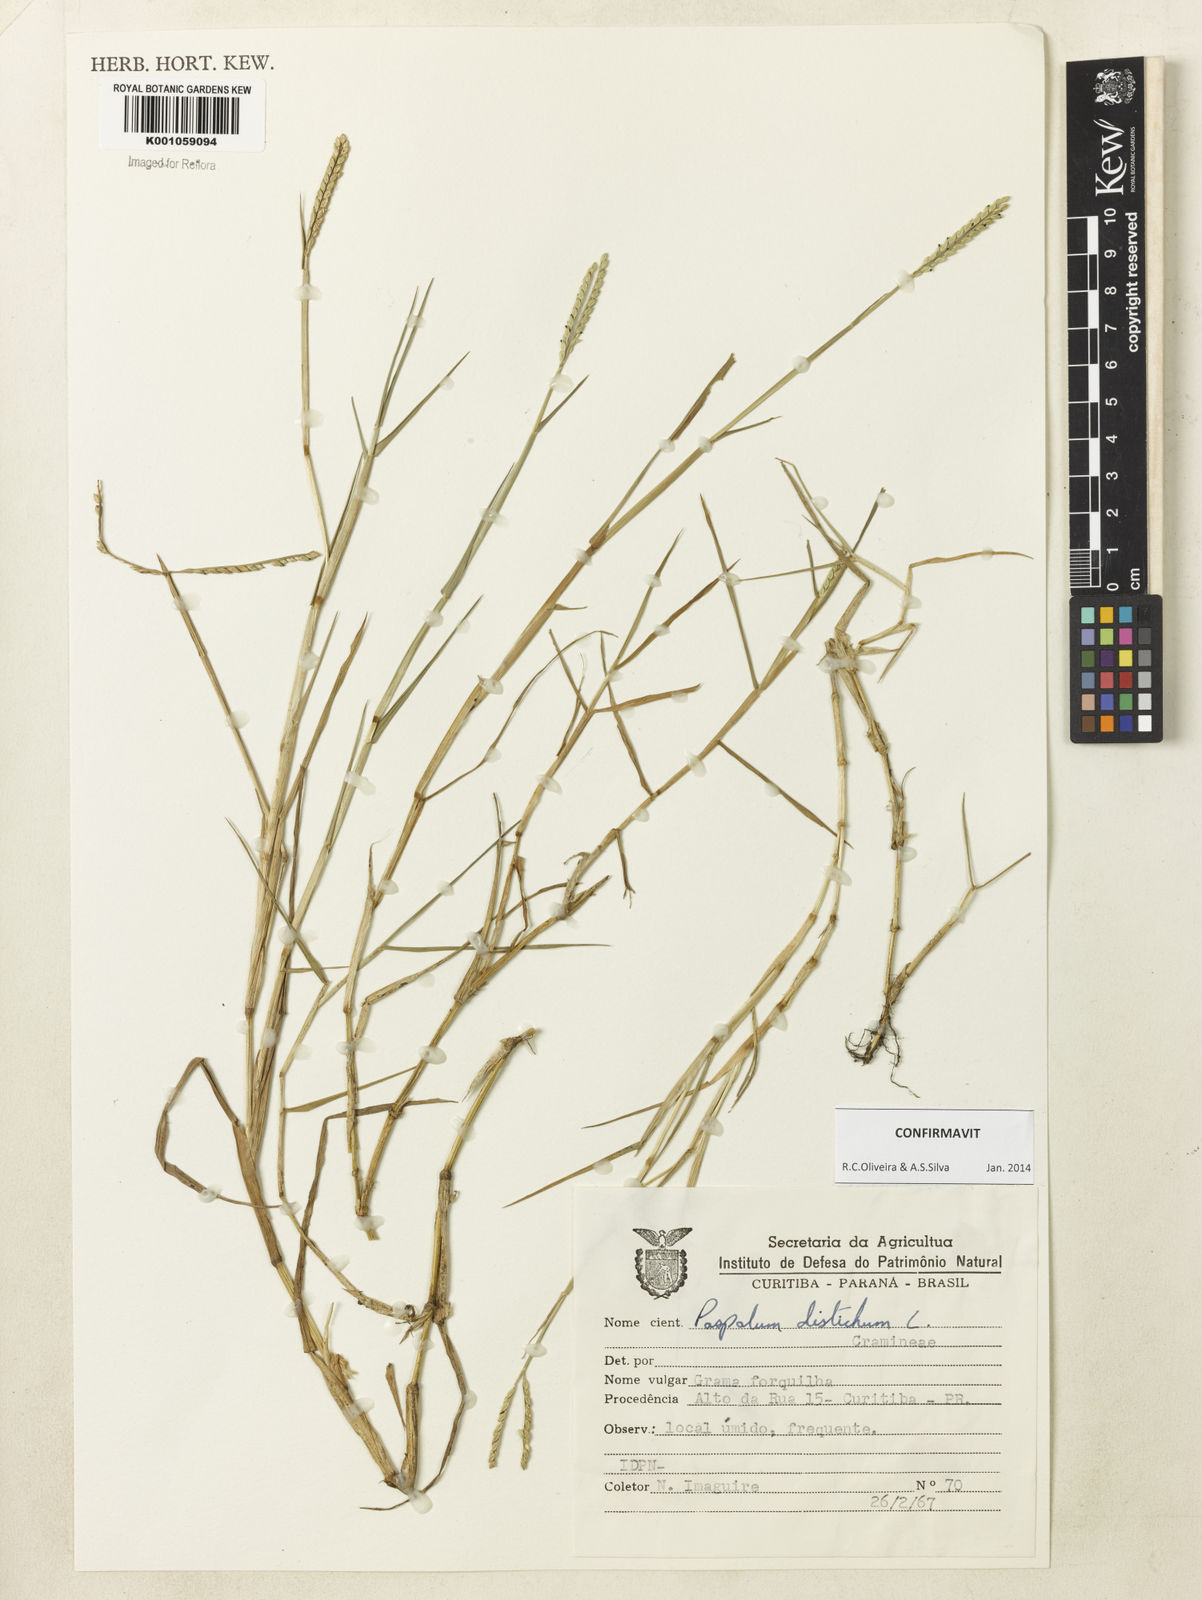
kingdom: Plantae
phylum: Tracheophyta
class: Liliopsida
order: Poales
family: Poaceae
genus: Paspalum
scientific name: Paspalum distichum
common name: Knotgrass
